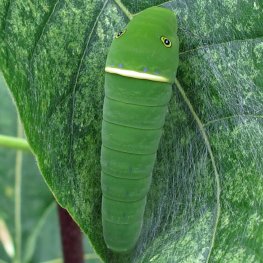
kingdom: Animalia
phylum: Arthropoda
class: Insecta
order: Lepidoptera
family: Papilionidae
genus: Pterourus
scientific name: Pterourus glaucus
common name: Eastern Tiger Swallowtail
